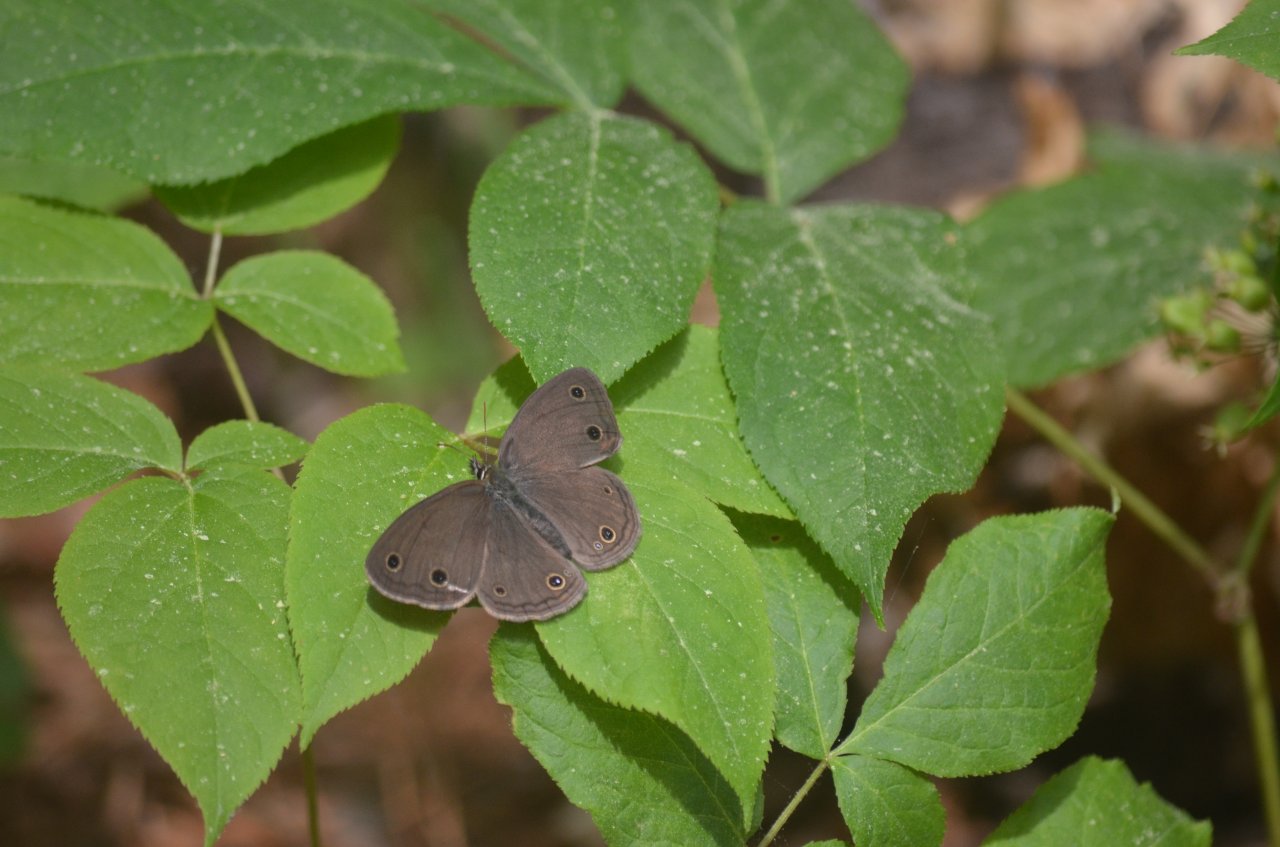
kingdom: Animalia
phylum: Arthropoda
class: Insecta
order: Lepidoptera
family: Nymphalidae
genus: Euptychia
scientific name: Euptychia cymela
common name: Little Wood Satyr
